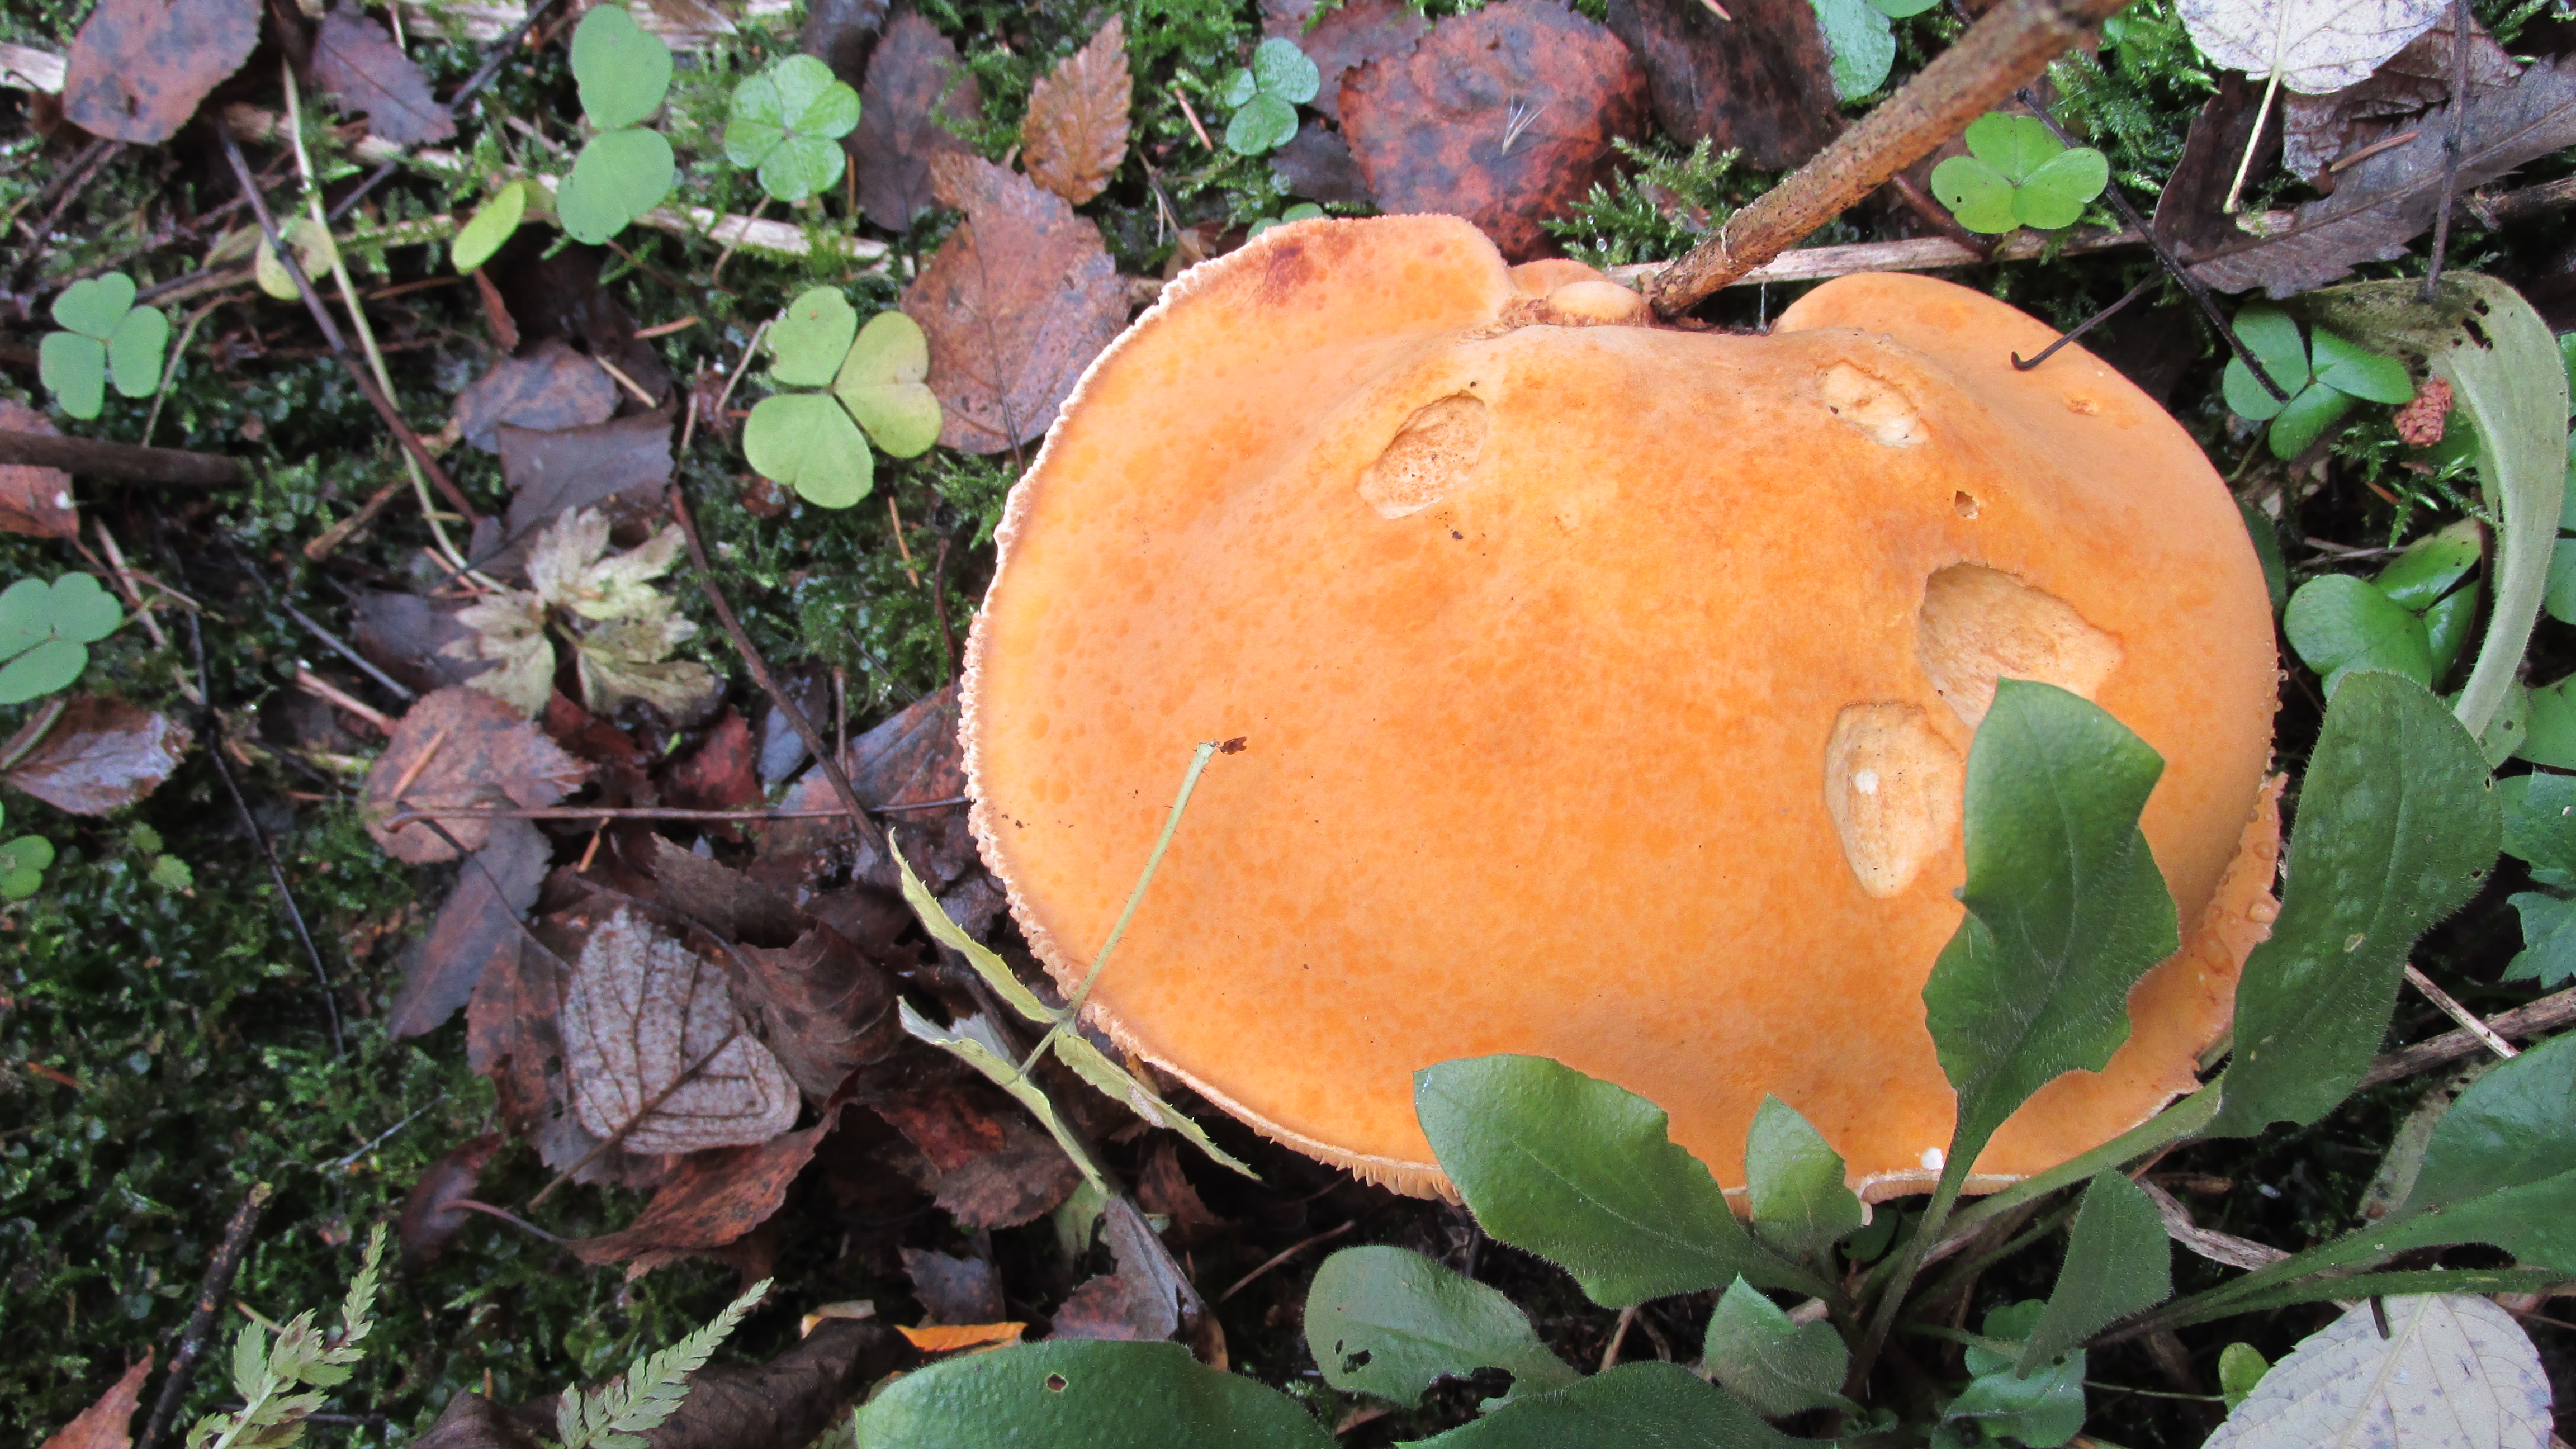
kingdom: Fungi
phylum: Basidiomycota
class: Agaricomycetes
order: Agaricales
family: Tricholomataceae
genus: Phaeolepiota
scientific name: Phaeolepiota aurea
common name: Golden bootleg
